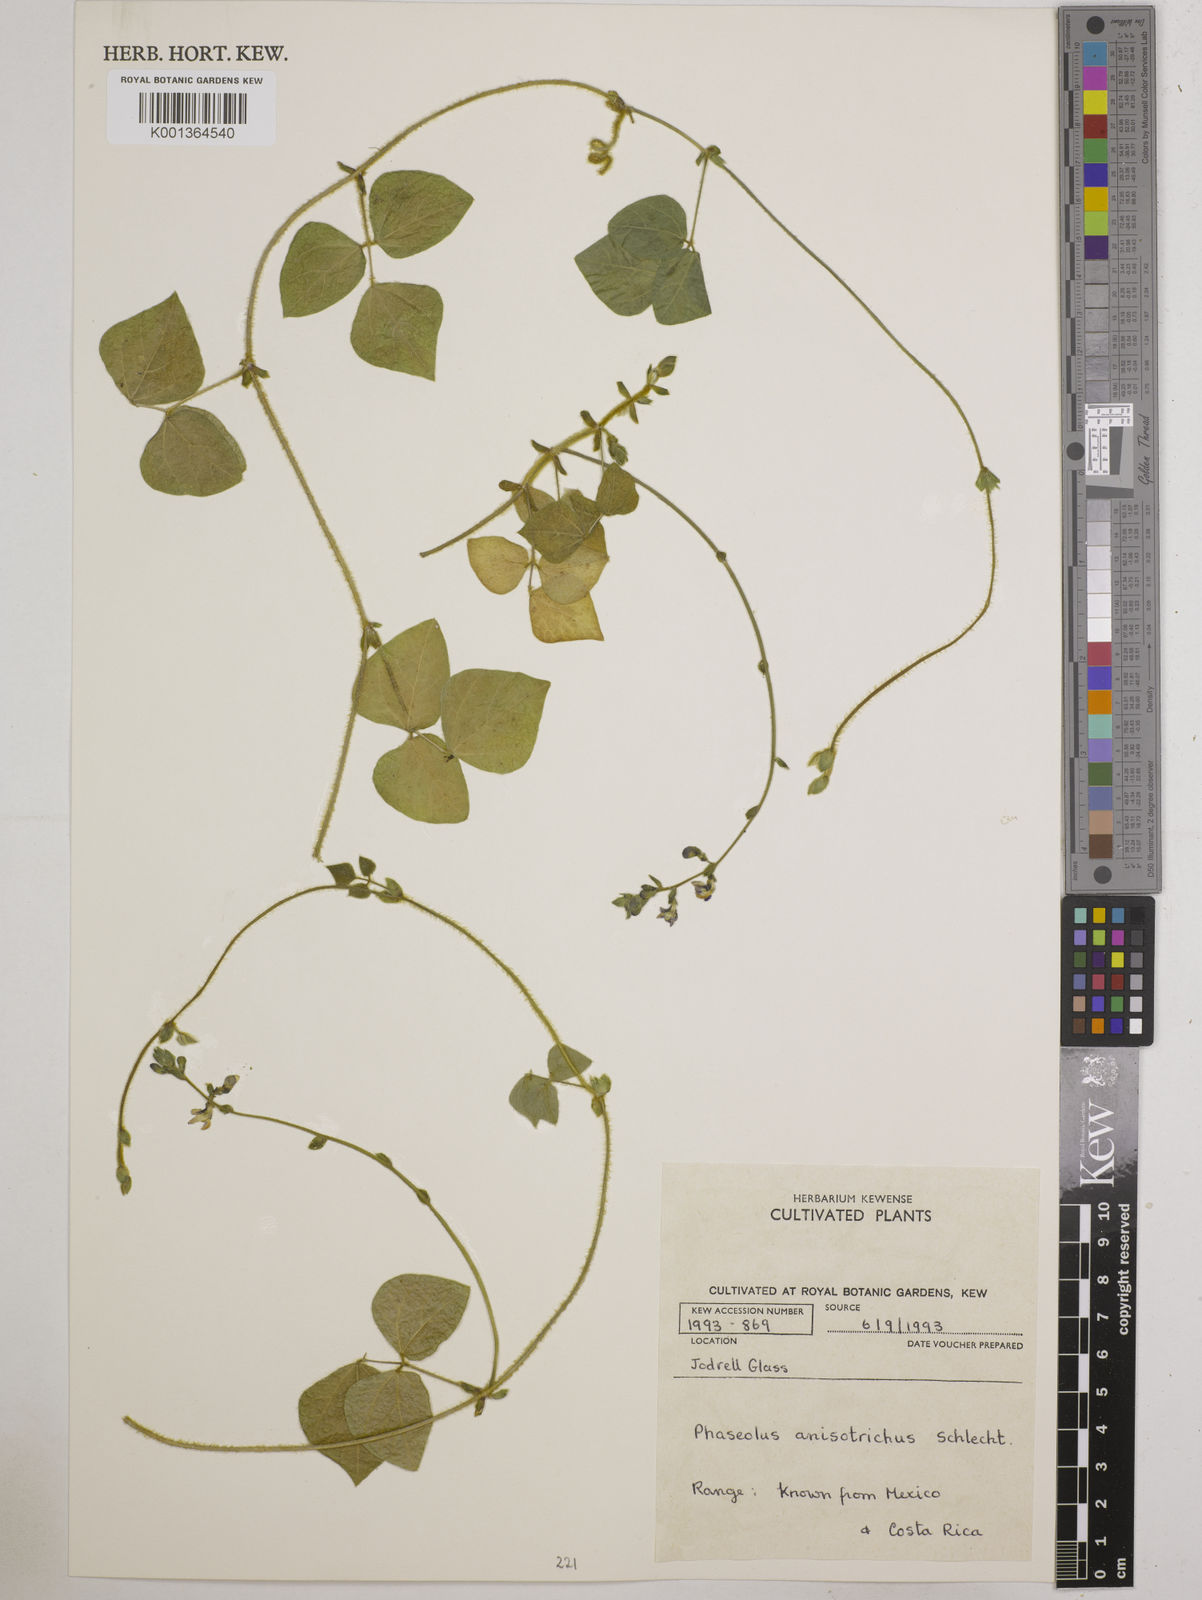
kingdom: Plantae
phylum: Tracheophyta
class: Magnoliopsida
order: Fabales
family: Fabaceae
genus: Phaseolus
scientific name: Phaseolus
